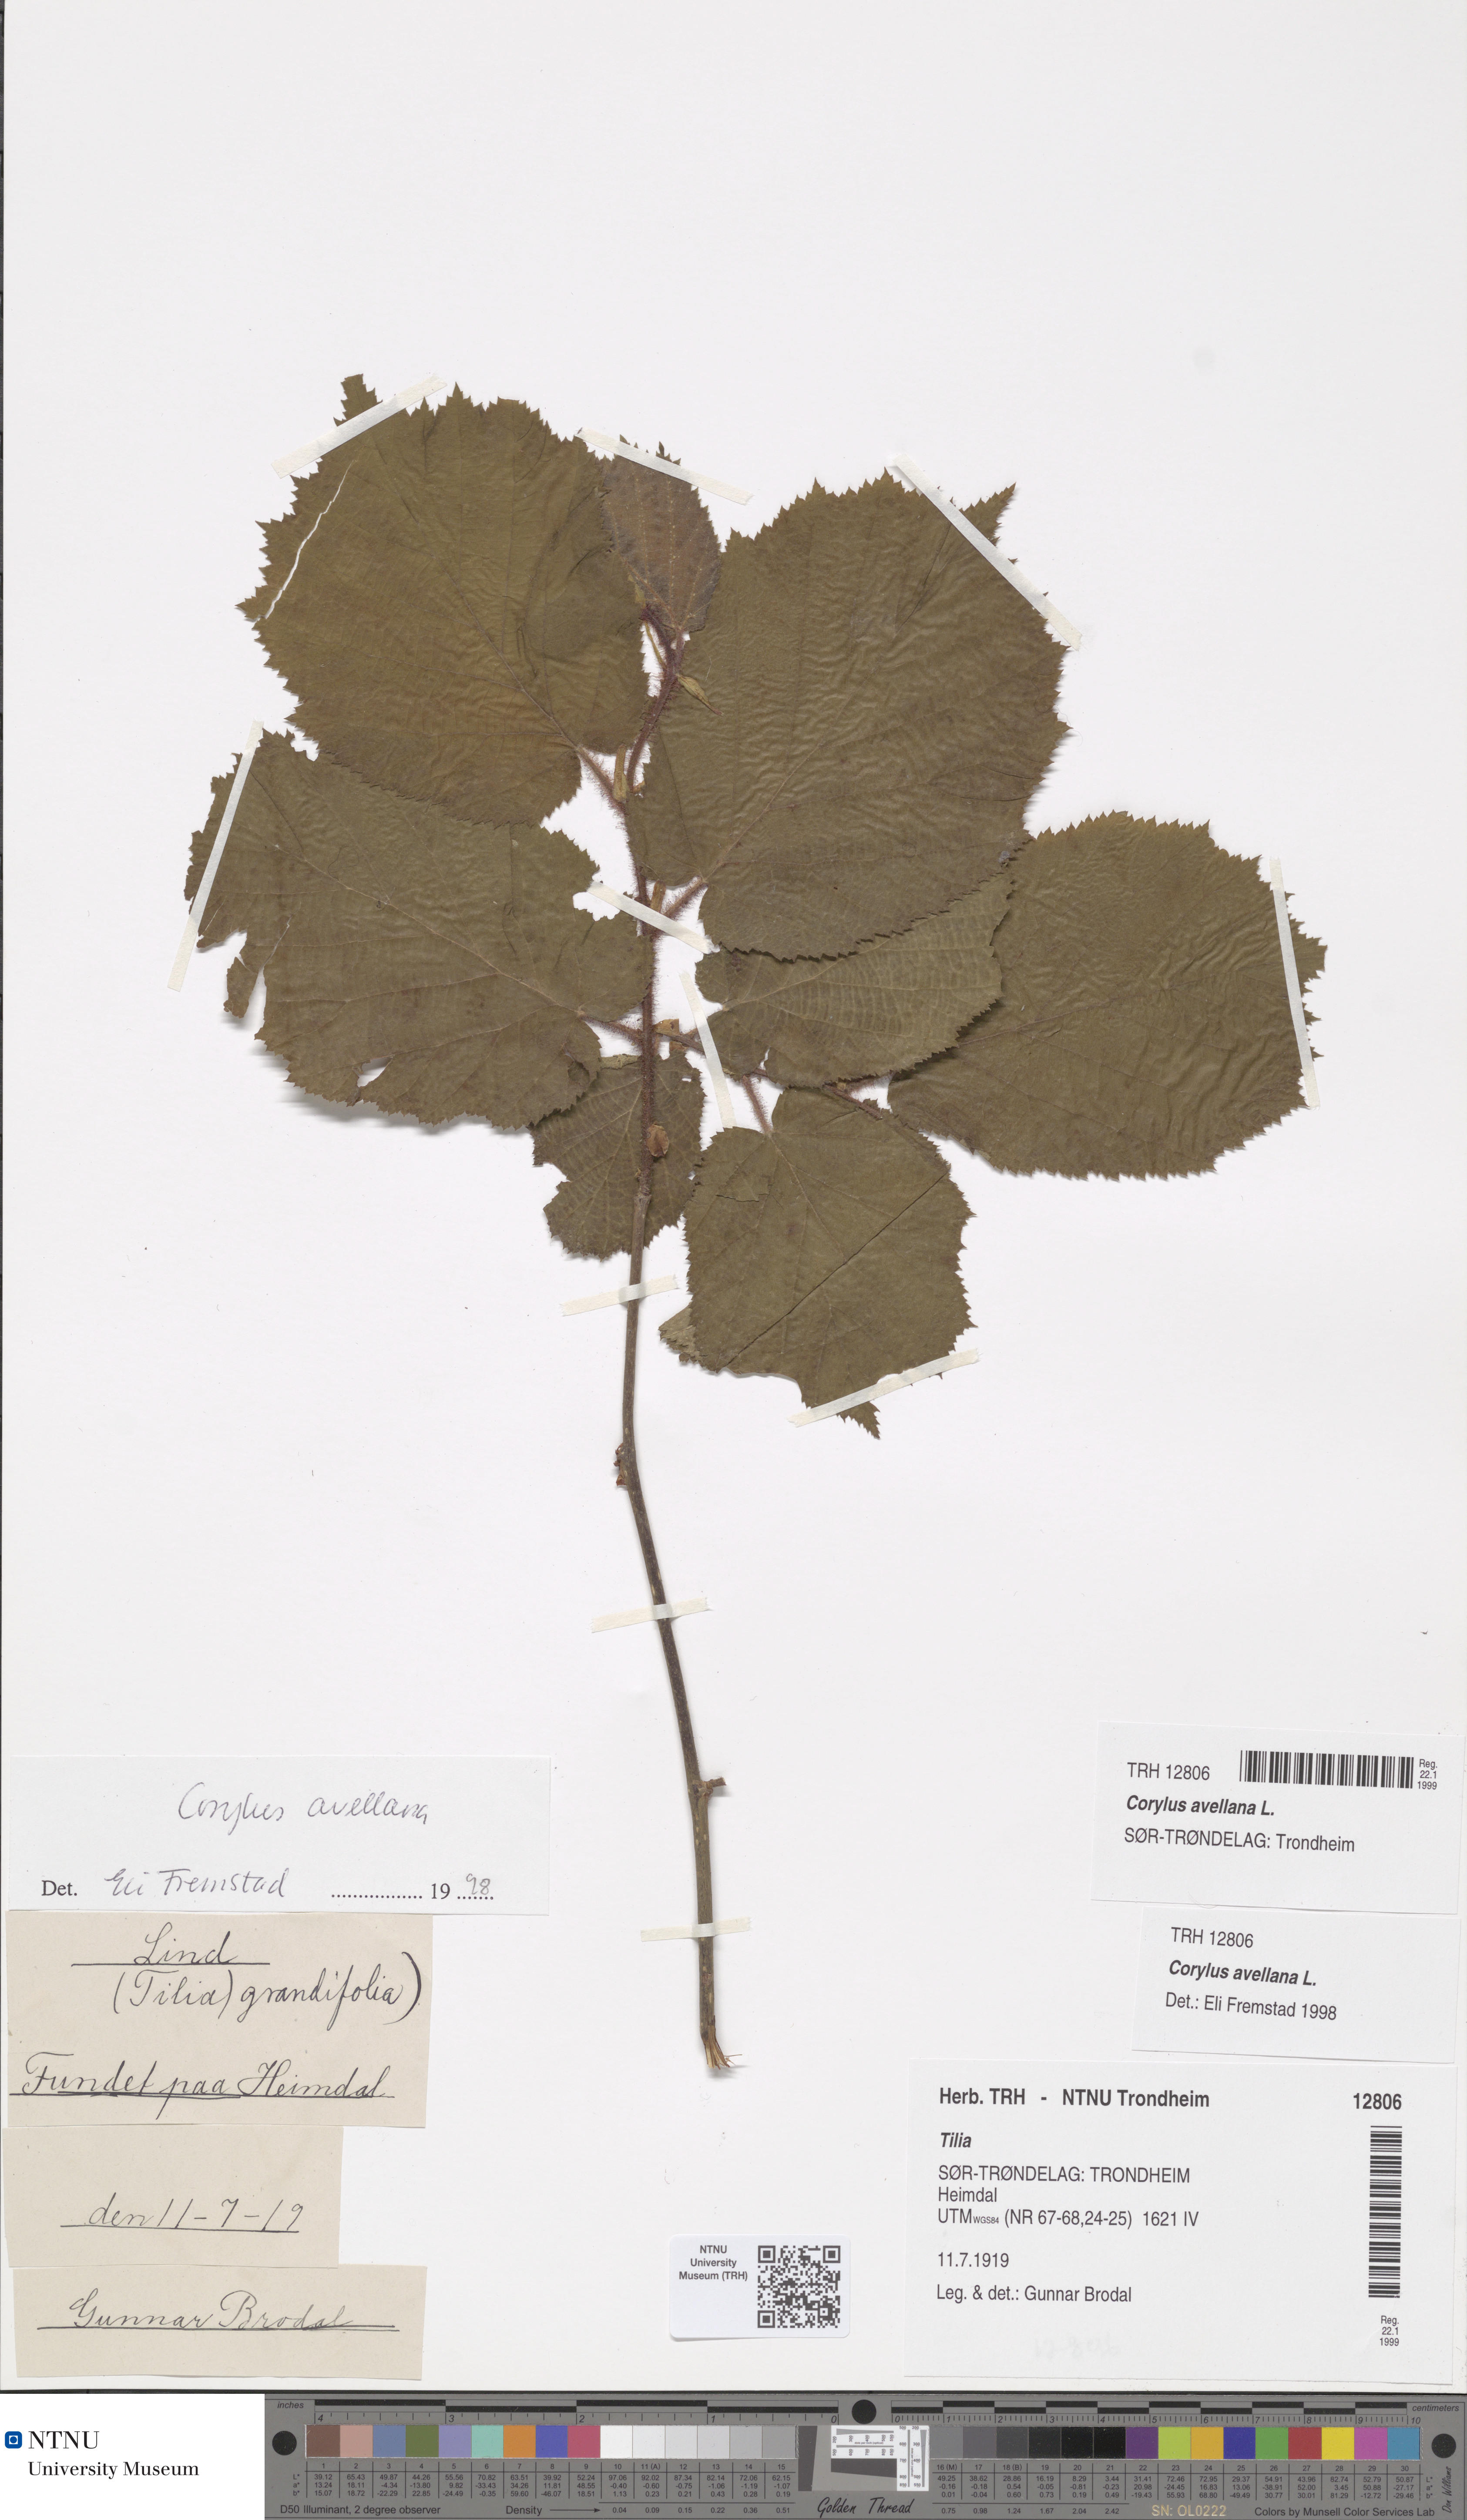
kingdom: Plantae
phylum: Tracheophyta
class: Magnoliopsida
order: Fagales
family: Betulaceae
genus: Corylus
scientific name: Corylus avellana
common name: European hazel
